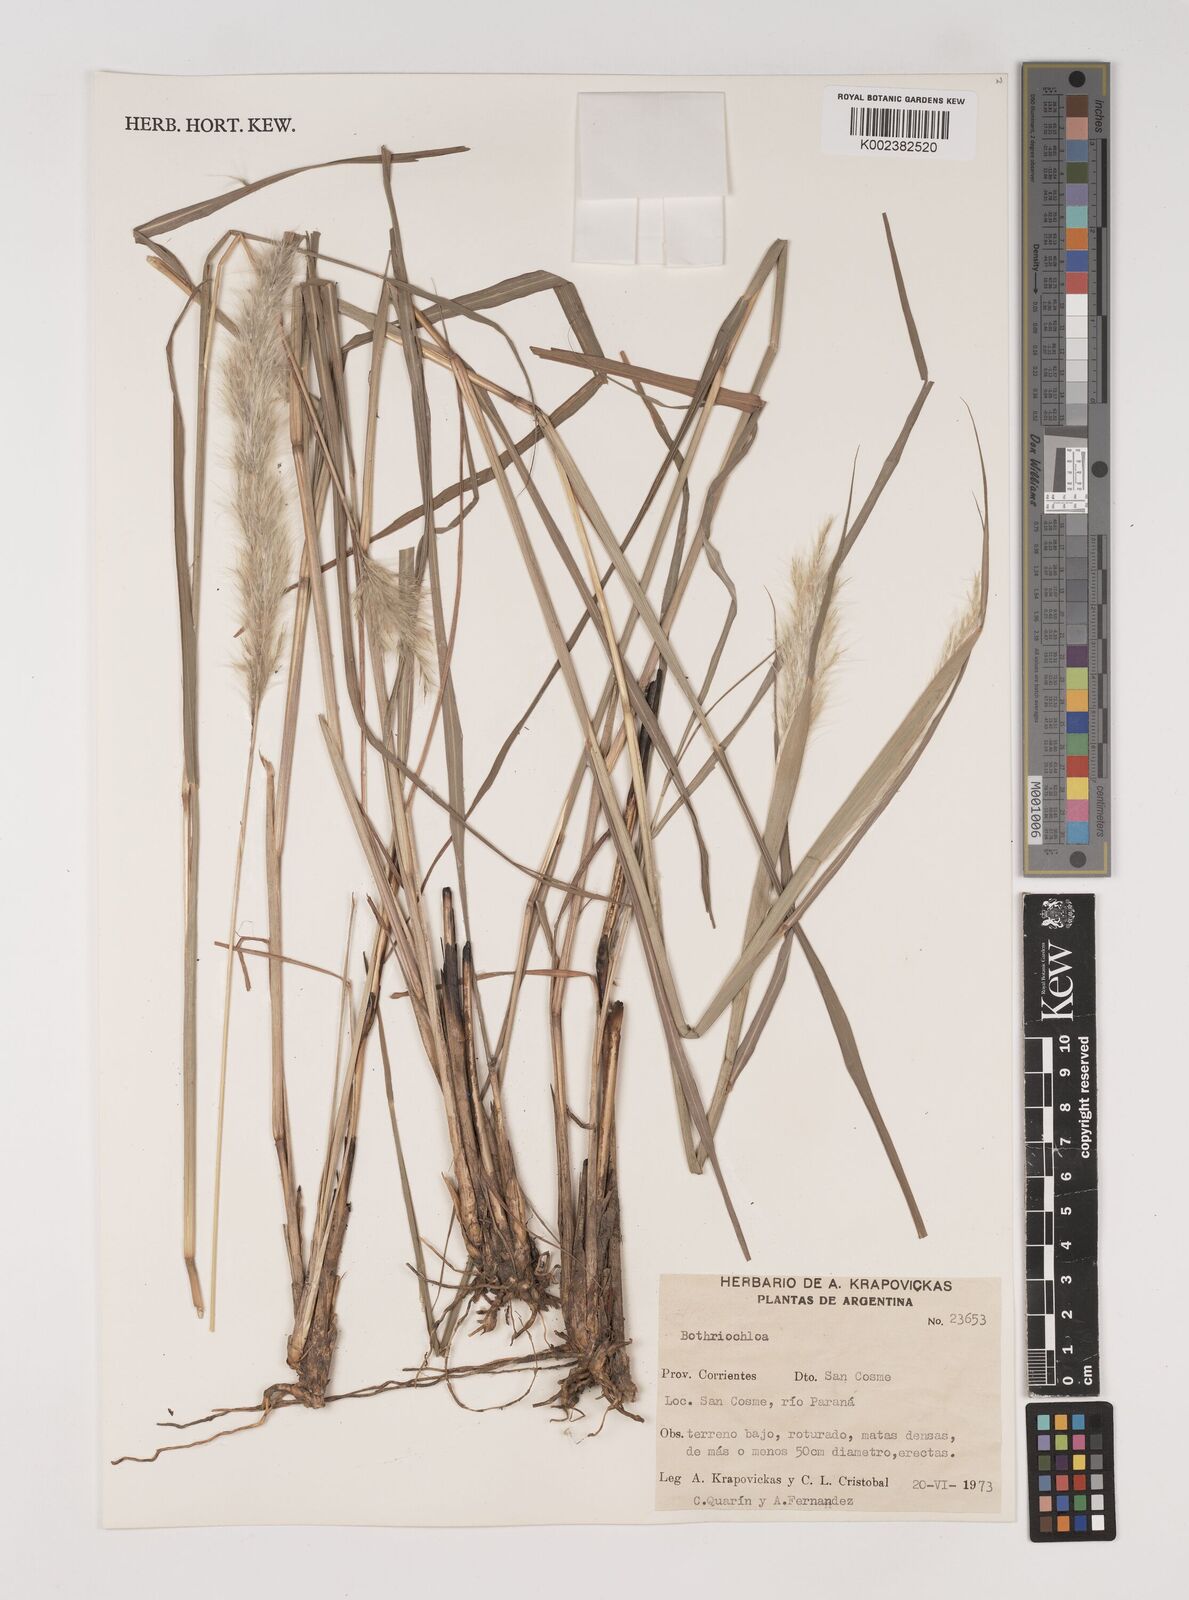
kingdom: Plantae
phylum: Tracheophyta
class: Liliopsida
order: Poales
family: Poaceae
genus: Bothriochloa
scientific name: Bothriochloa longipaniculata
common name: Longspike silver bluestem
